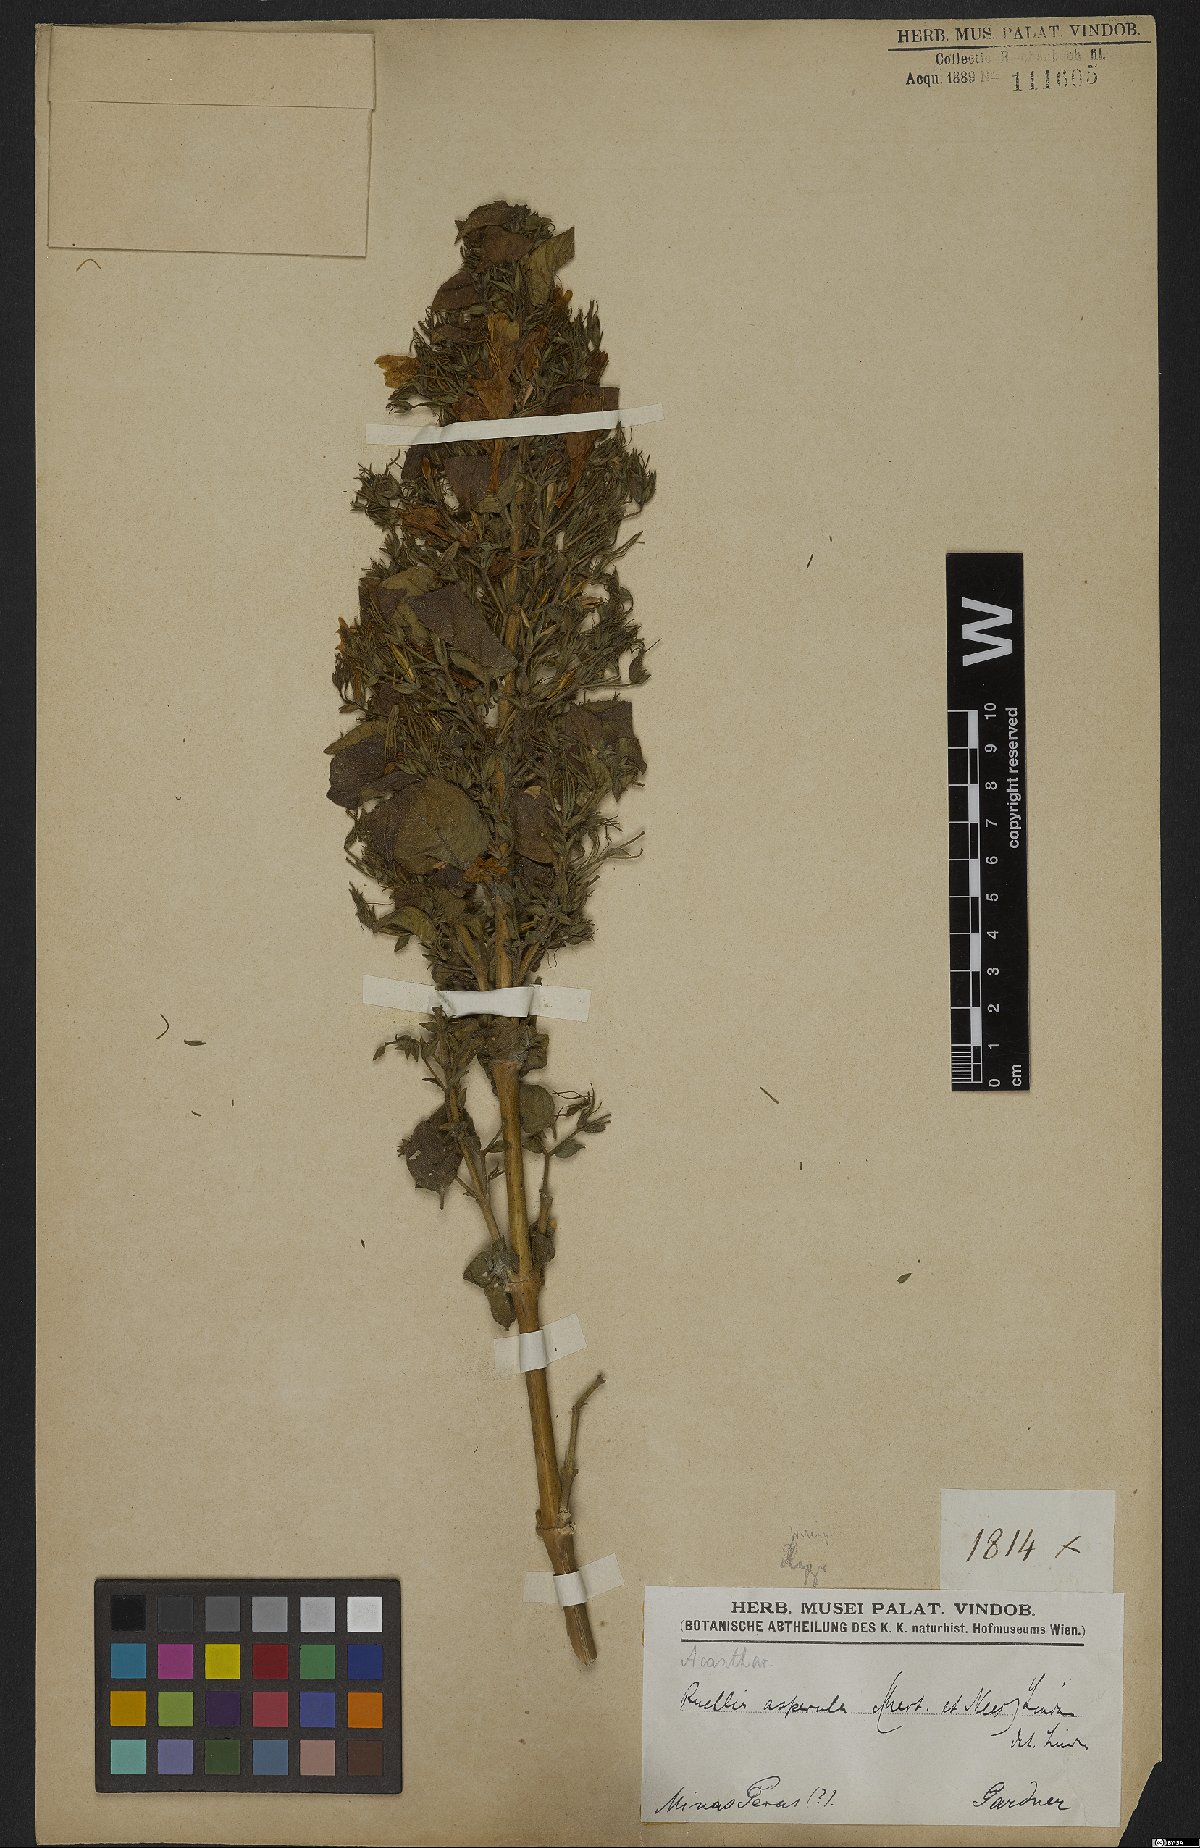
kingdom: Plantae
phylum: Tracheophyta
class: Magnoliopsida
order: Lamiales
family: Acanthaceae
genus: Ruellia
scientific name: Ruellia asperula
